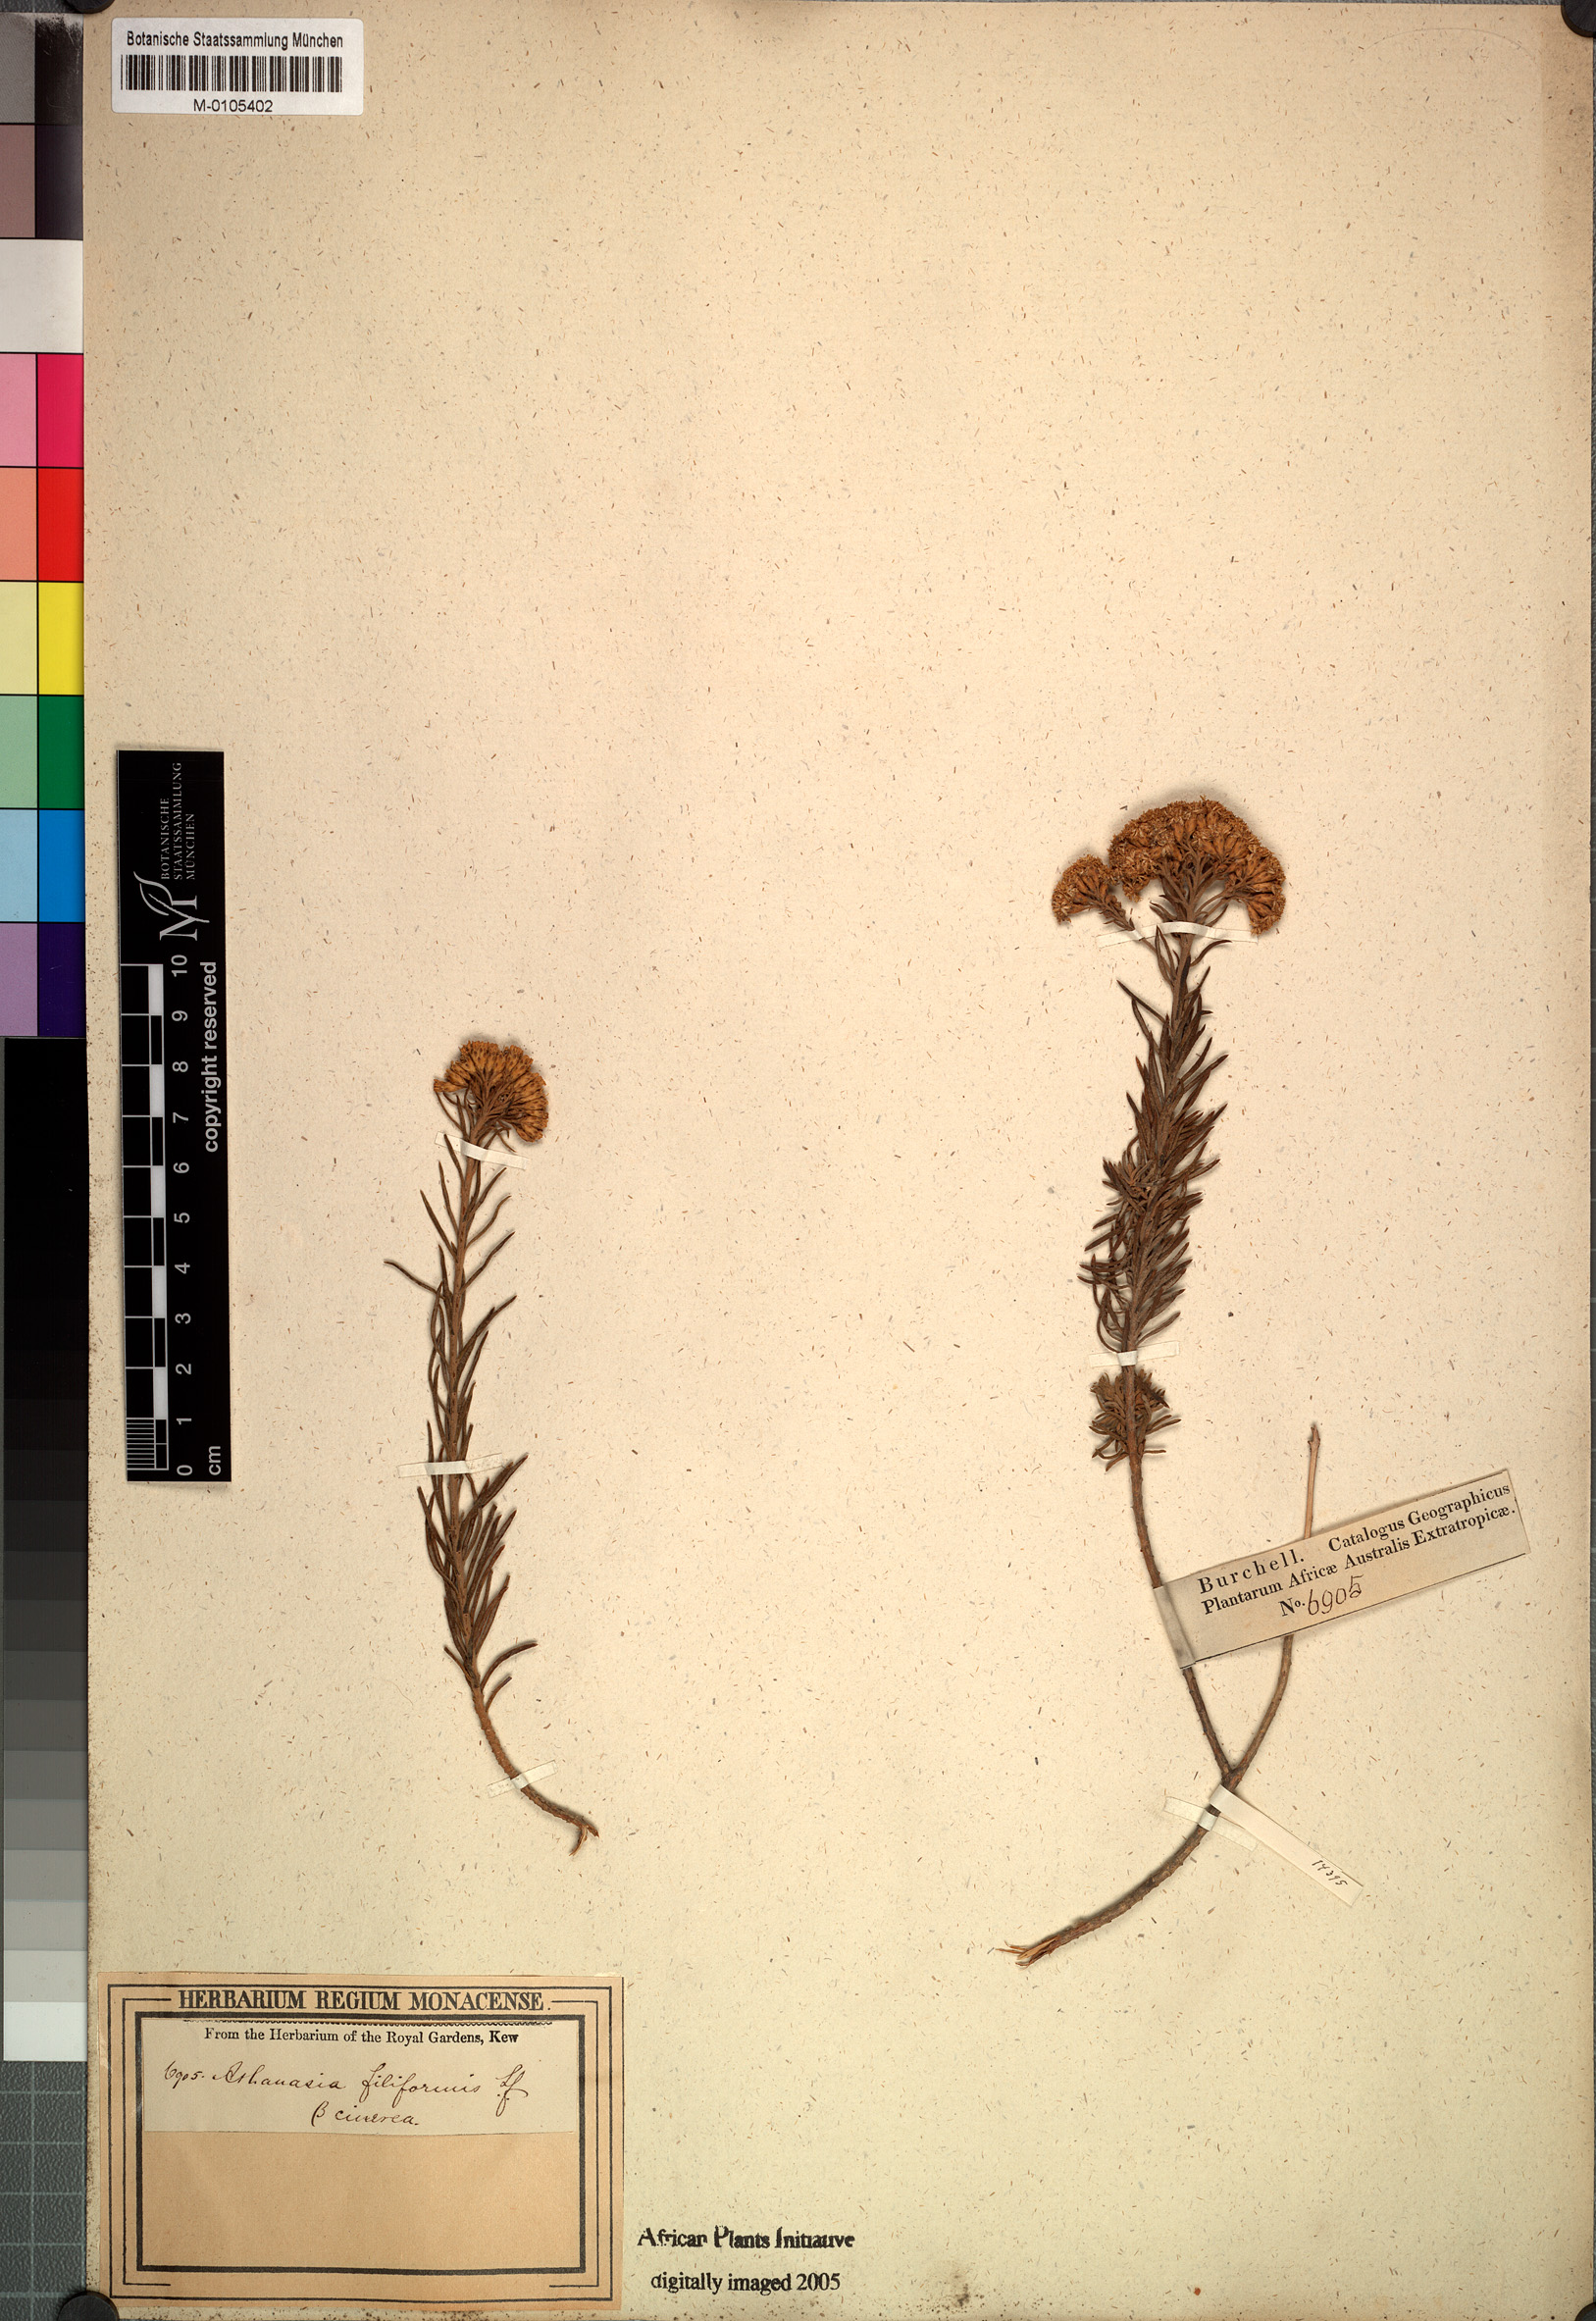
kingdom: Plantae
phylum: Tracheophyta
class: Magnoliopsida
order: Asterales
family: Asteraceae
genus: Athanasia
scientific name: Athanasia filiformis
